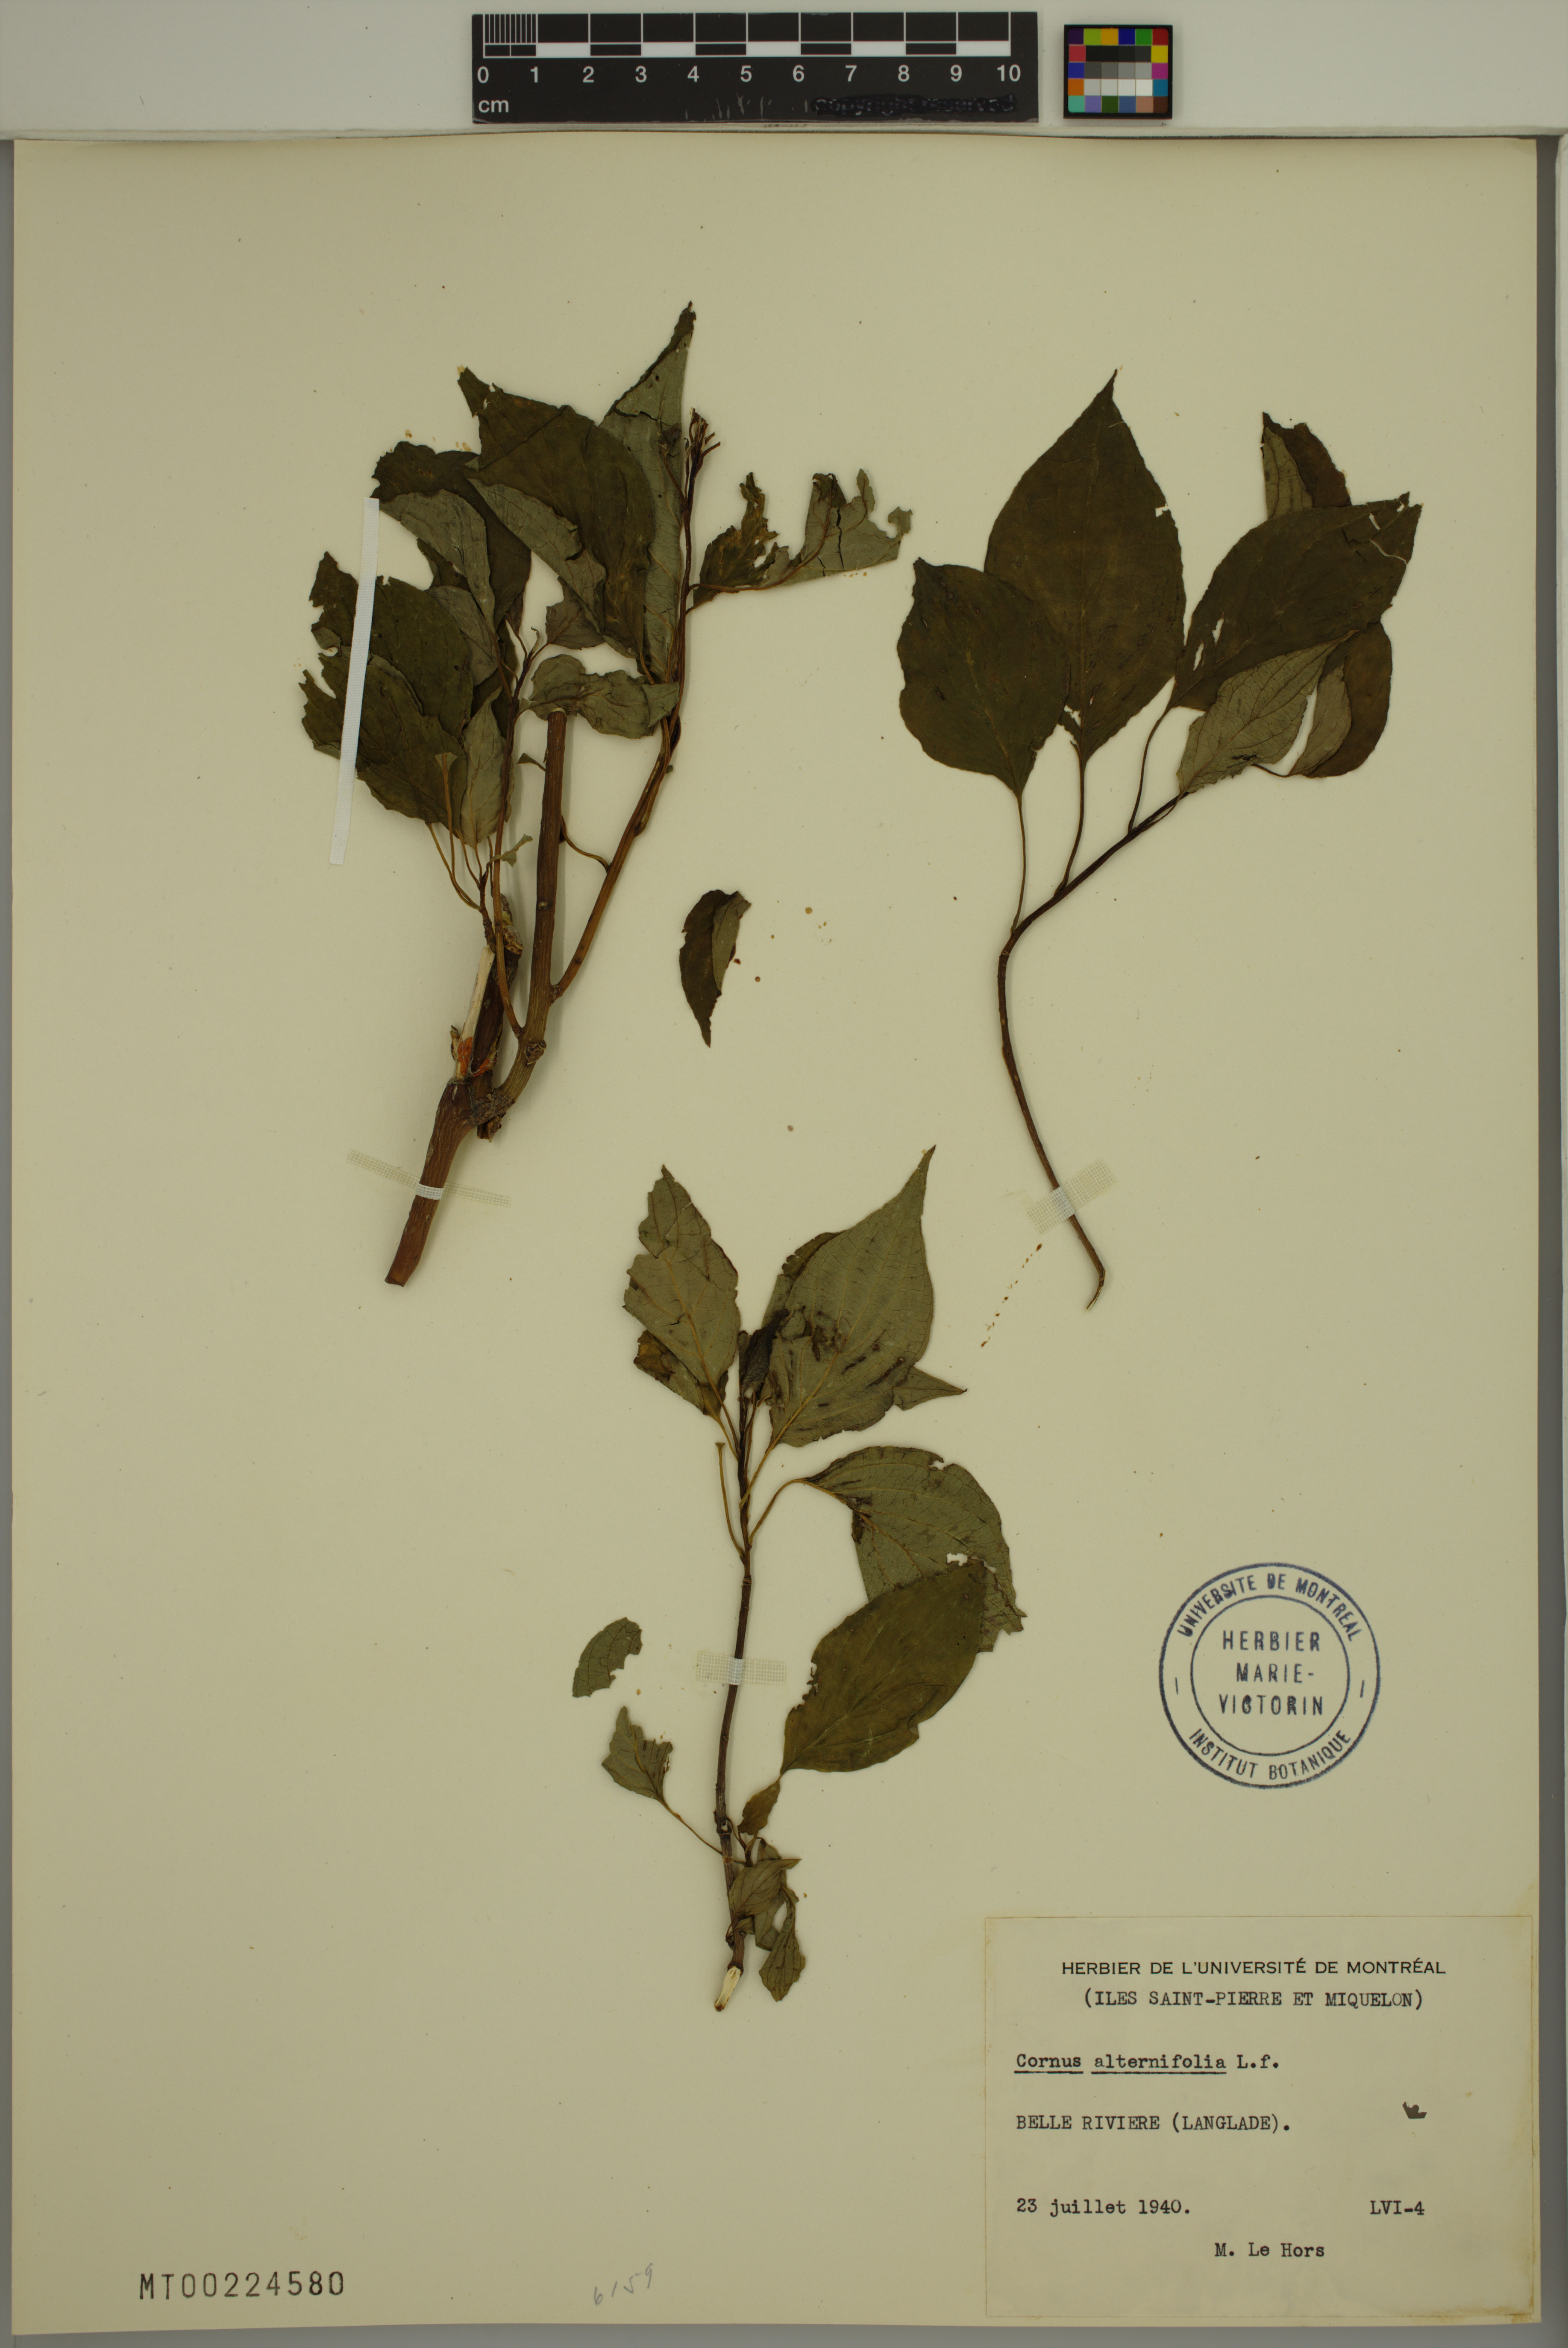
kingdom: Plantae
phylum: Tracheophyta
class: Magnoliopsida
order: Cornales
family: Cornaceae
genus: Cornus
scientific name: Cornus alternifolia
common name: Pagoda dogwood
